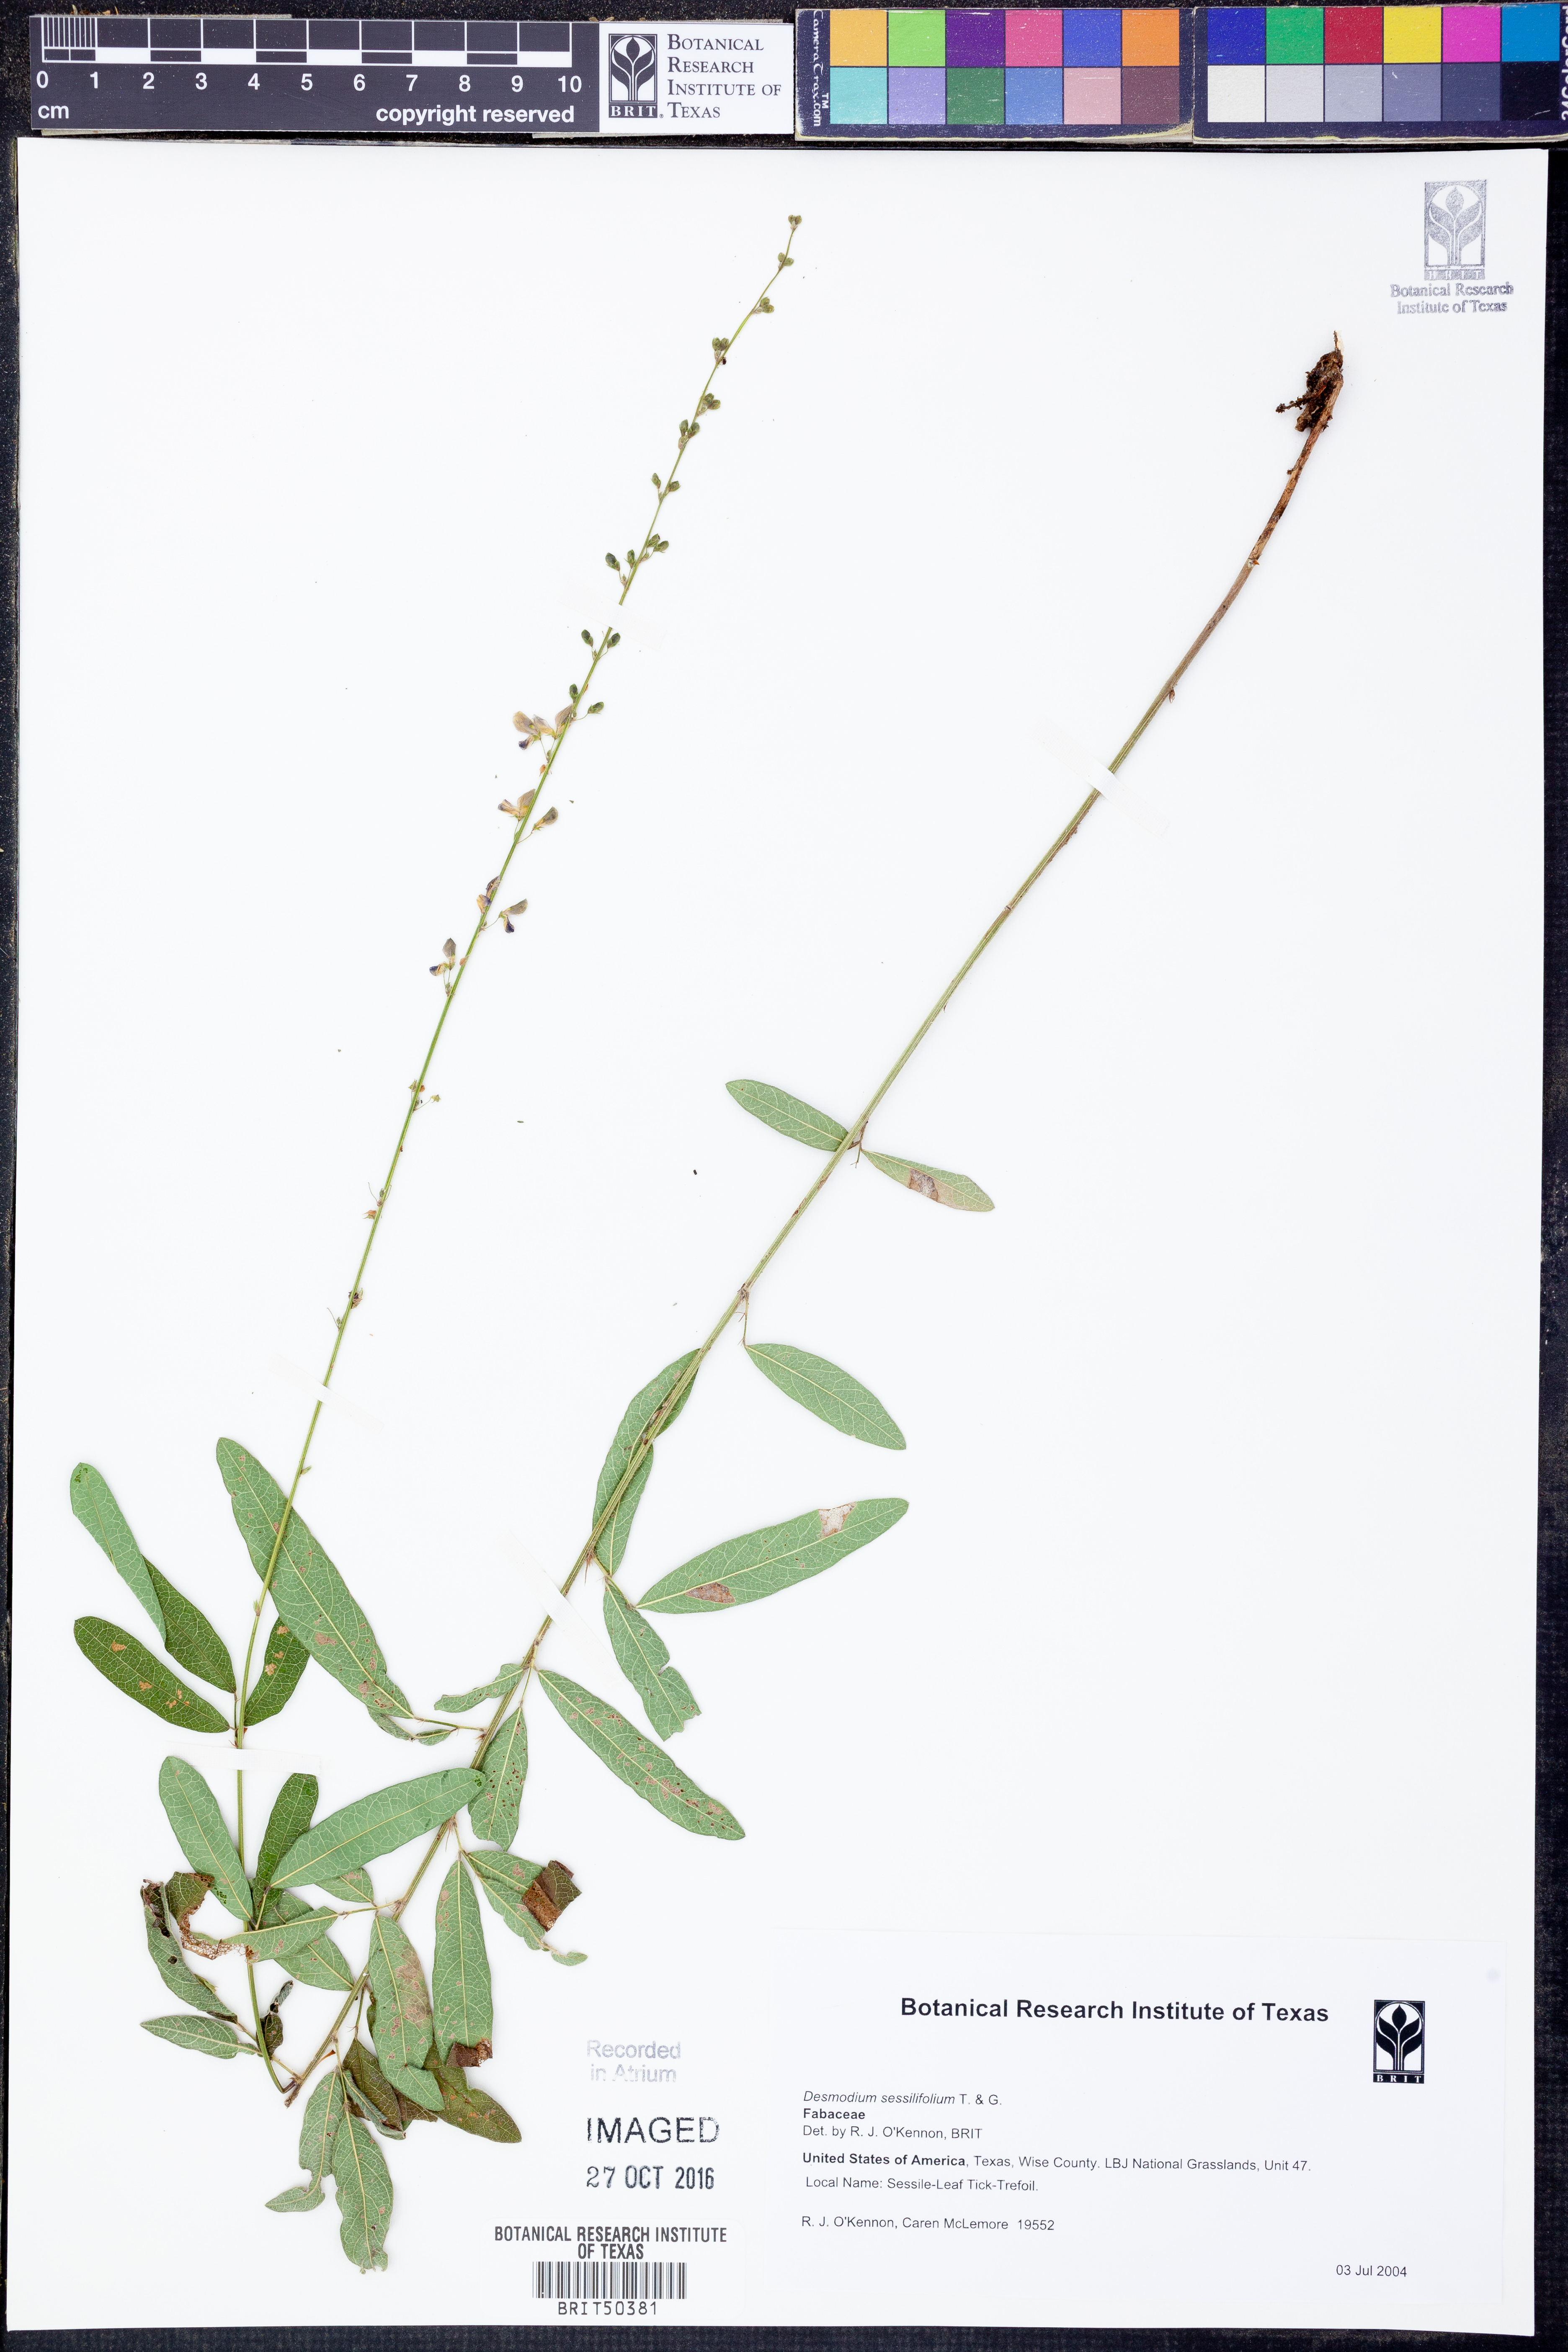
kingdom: Plantae
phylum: Tracheophyta
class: Magnoliopsida
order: Fabales
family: Fabaceae
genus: Desmodium
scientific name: Desmodium sessilifolium
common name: Sessile tick-clover
